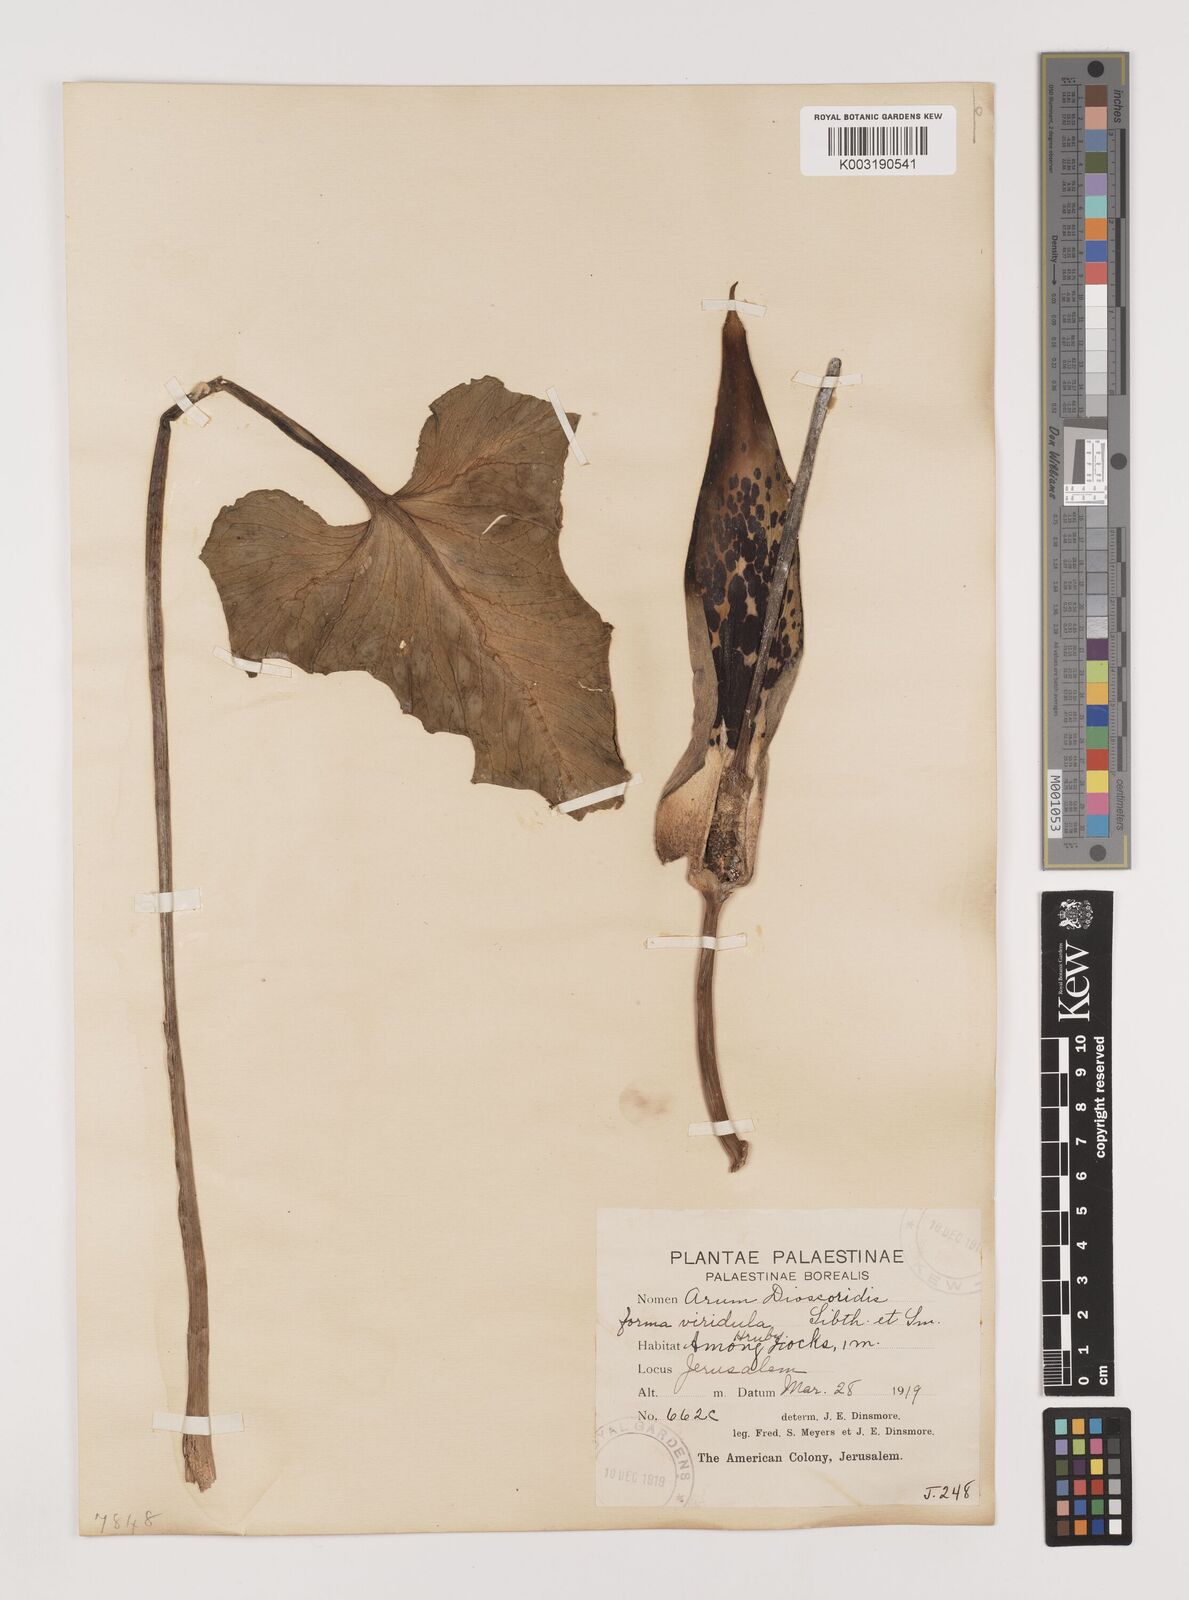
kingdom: Plantae
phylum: Tracheophyta
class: Liliopsida
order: Alismatales
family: Araceae
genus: Arum
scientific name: Arum dioscoridis
